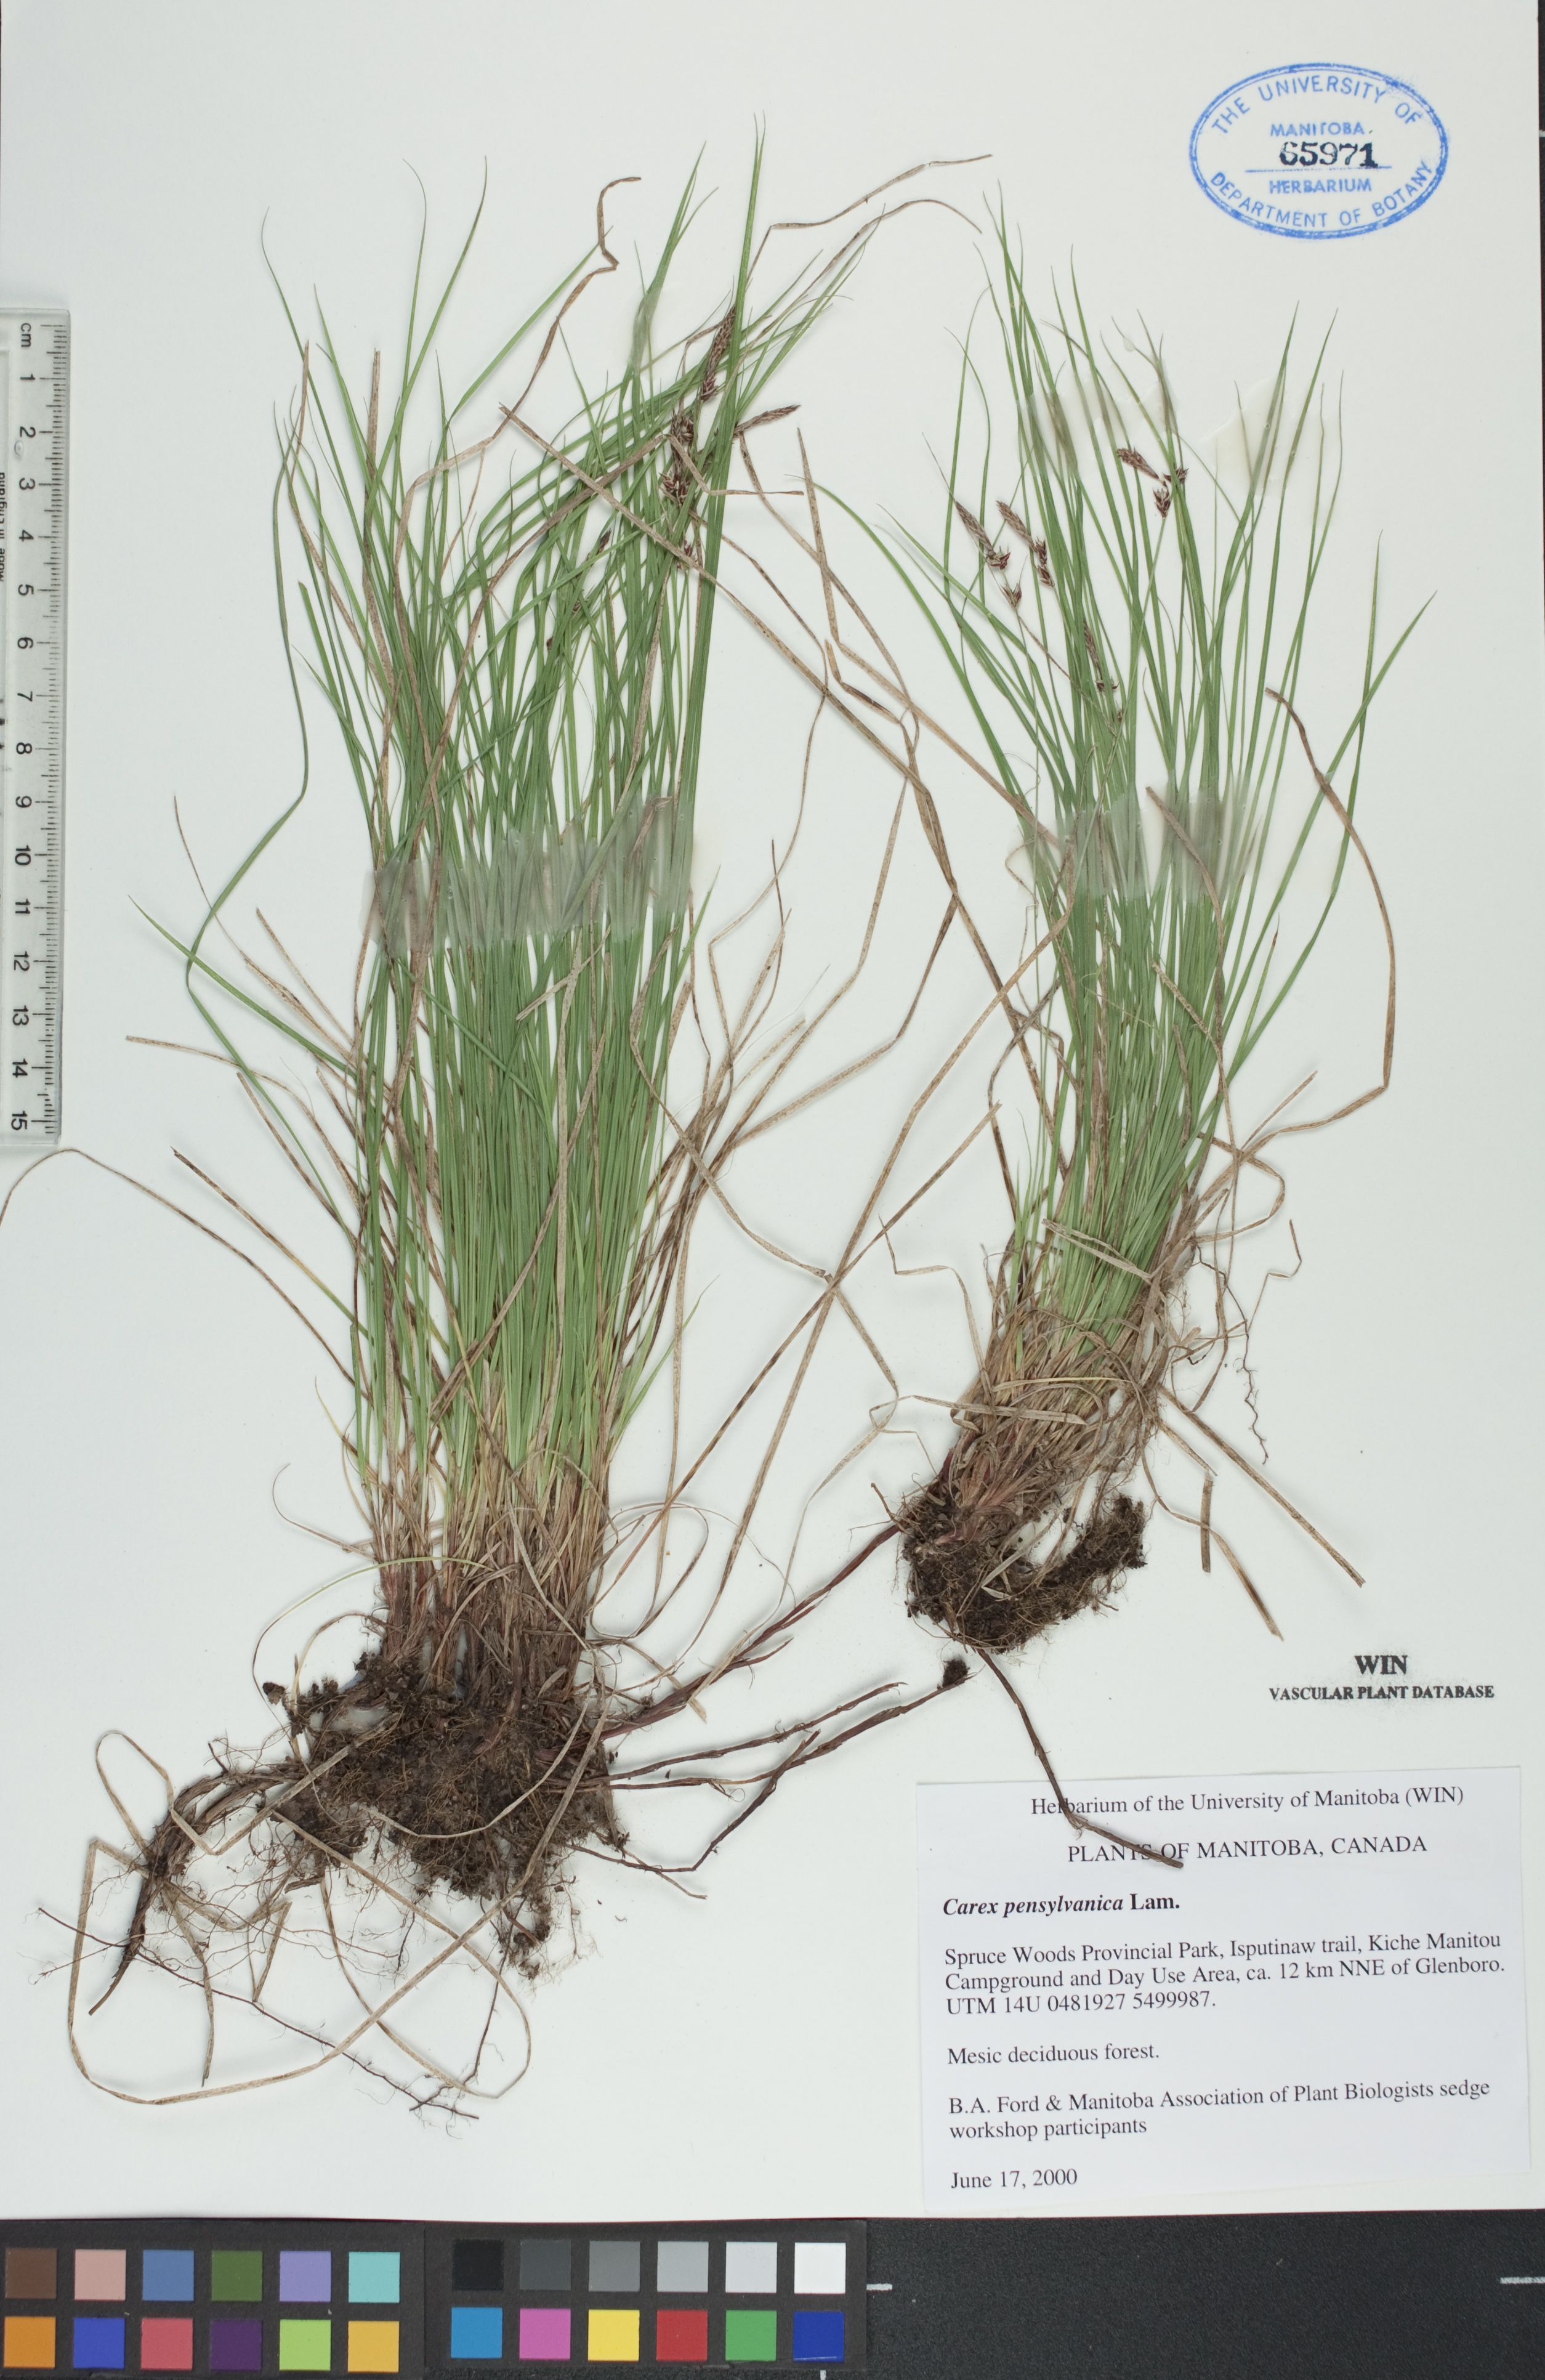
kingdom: Plantae
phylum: Tracheophyta
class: Liliopsida
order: Poales
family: Cyperaceae
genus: Carex
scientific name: Carex pensylvanica
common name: Common oak sedge
